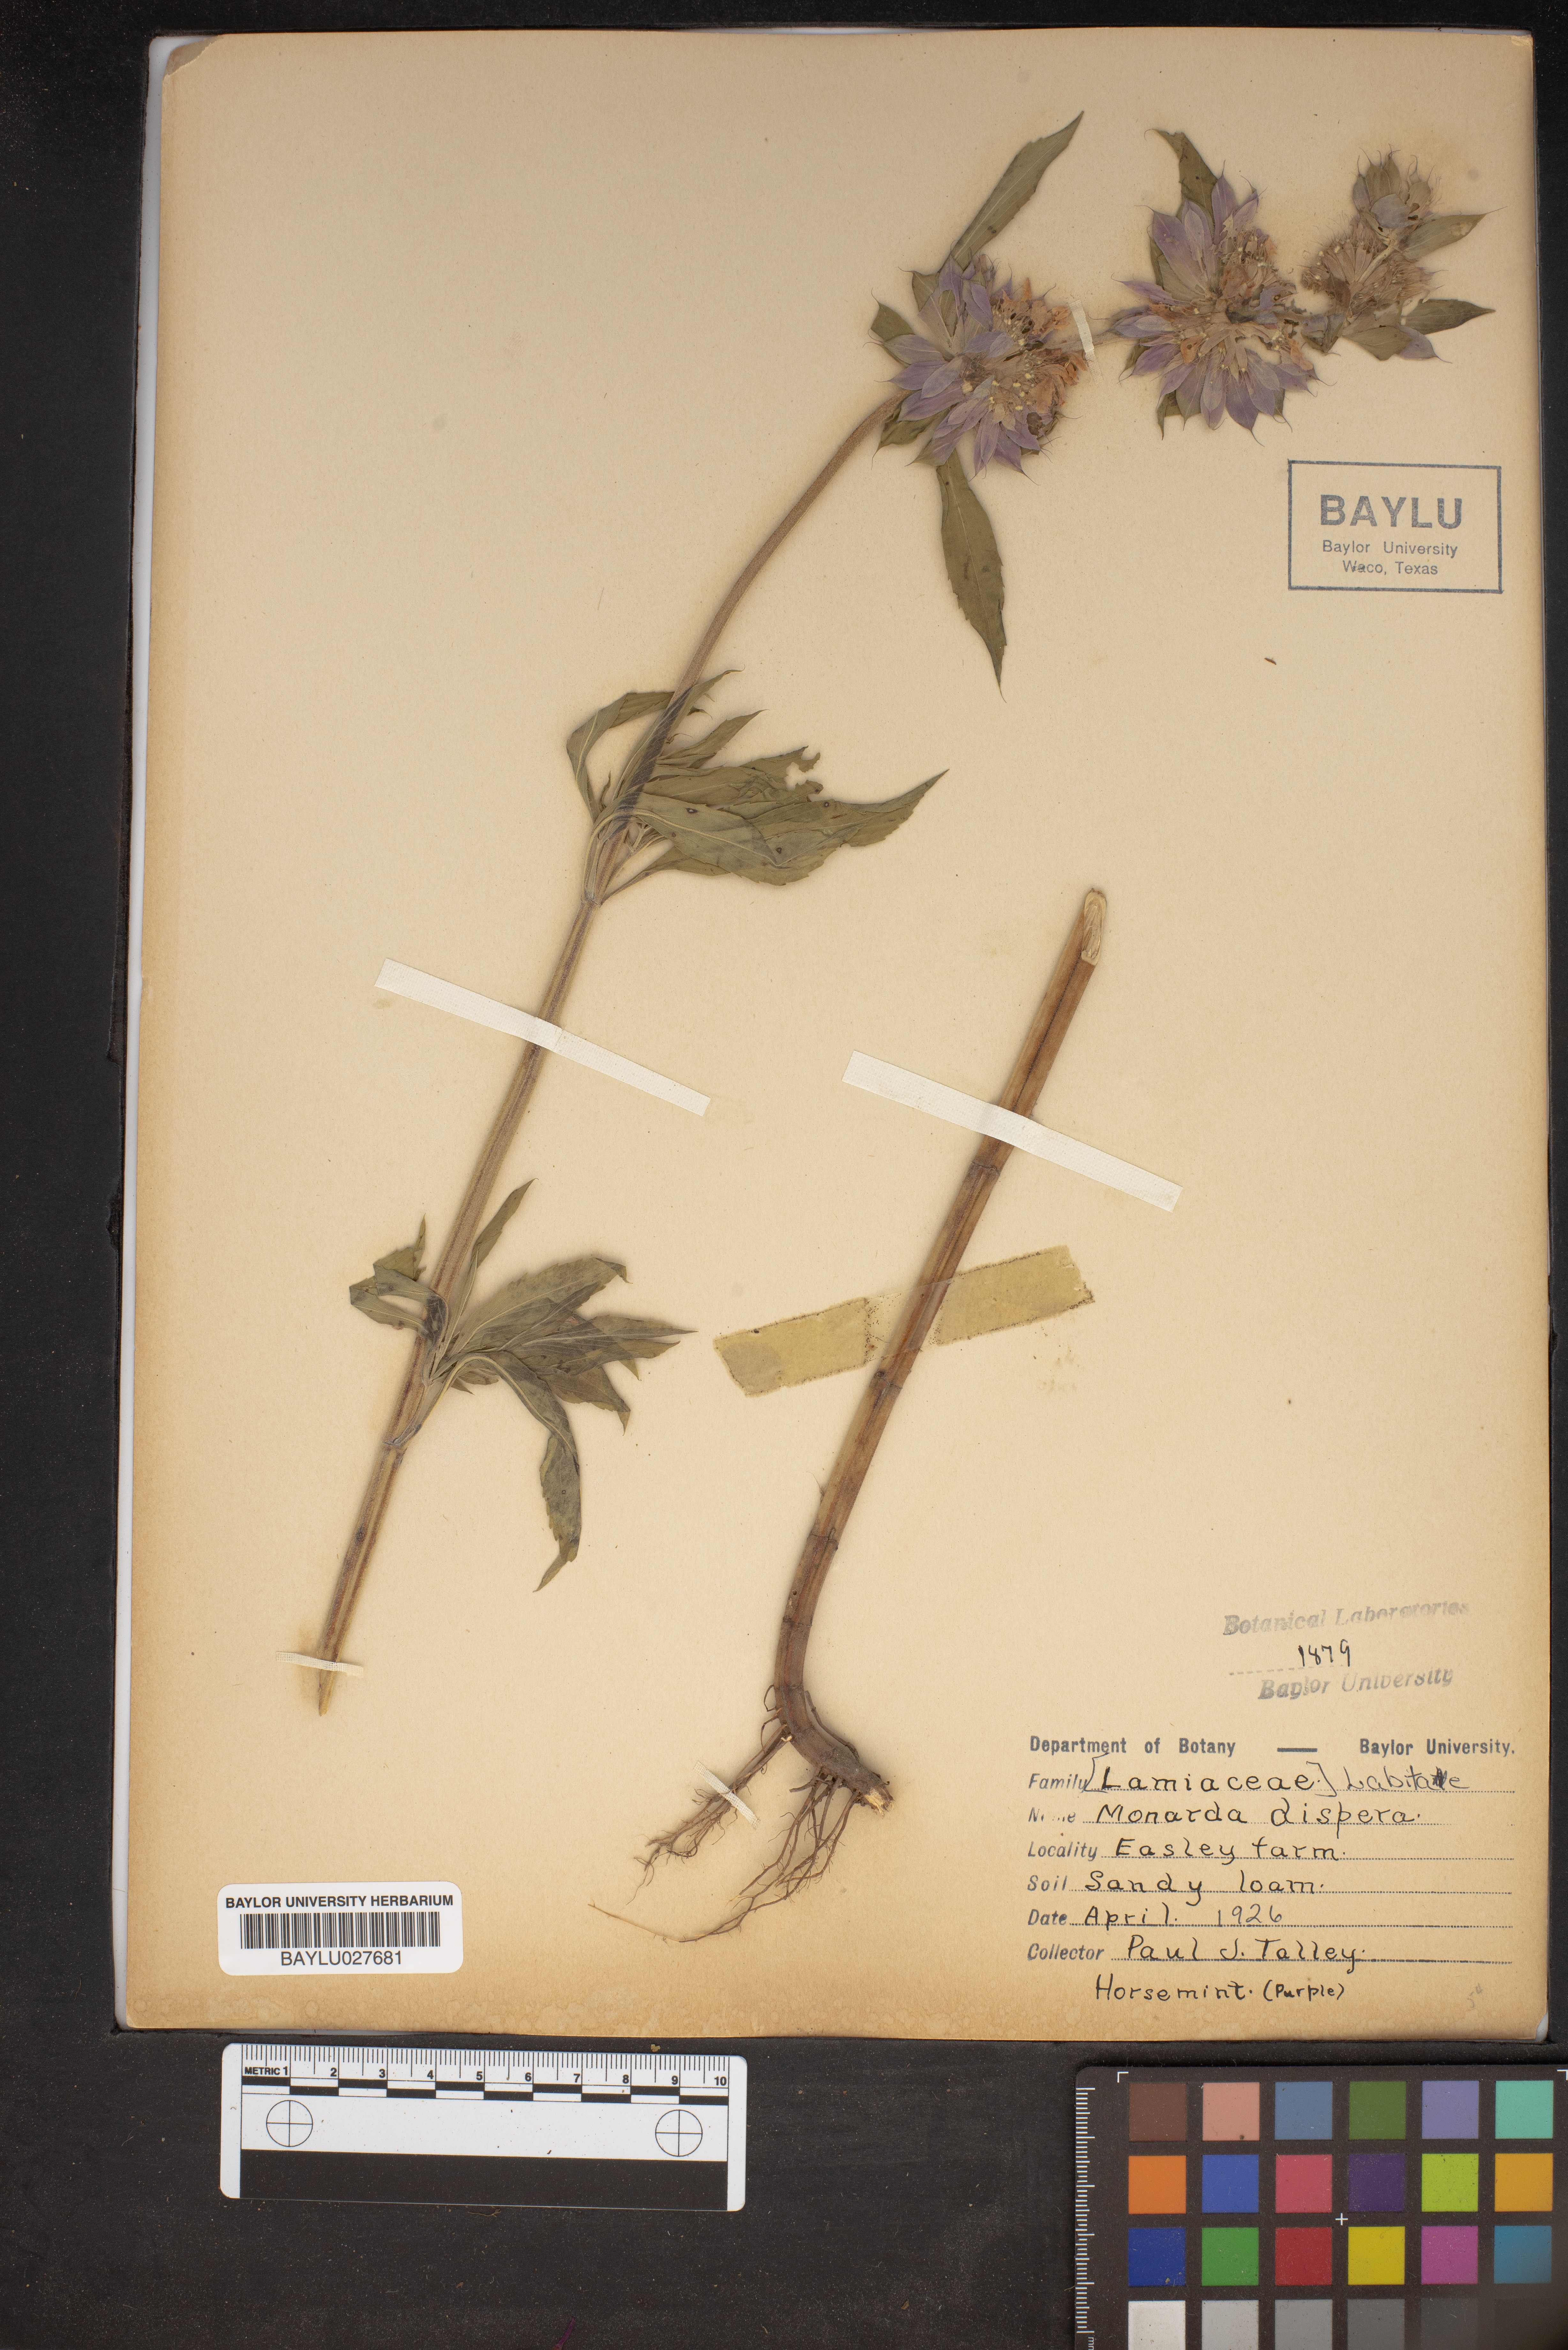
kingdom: Plantae
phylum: Tracheophyta
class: Magnoliopsida
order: Lamiales
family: Lamiaceae
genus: Monarda
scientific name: Monarda citriodora
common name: Lemon beebalm
